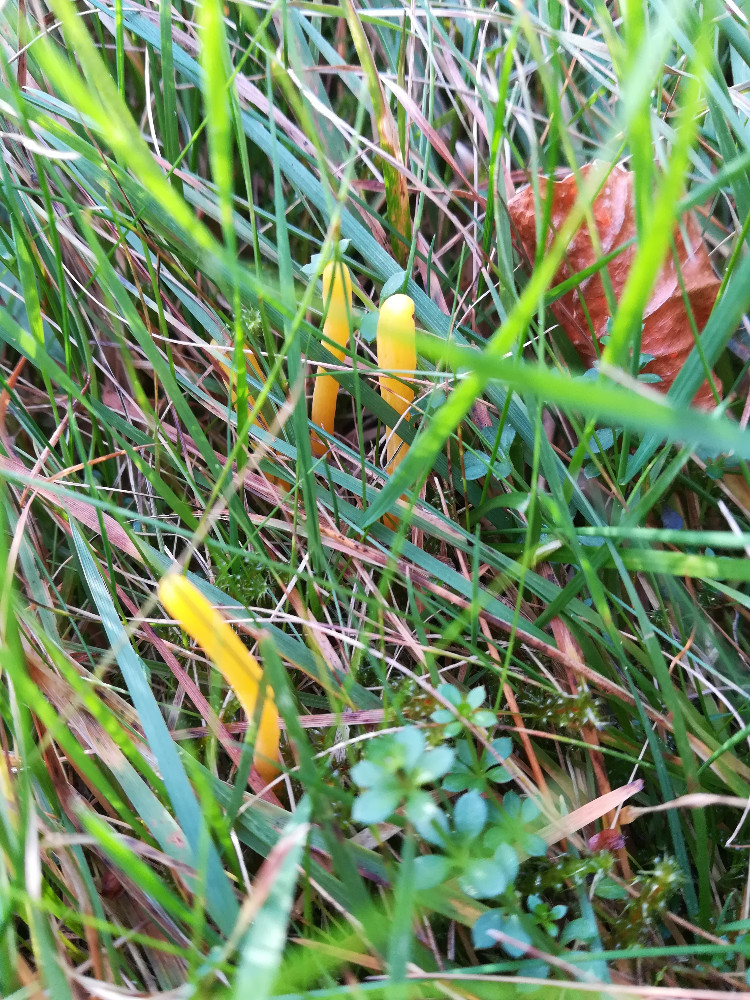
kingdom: Fungi
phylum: Basidiomycota
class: Agaricomycetes
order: Agaricales
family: Clavariaceae
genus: Clavulinopsis
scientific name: Clavulinopsis
